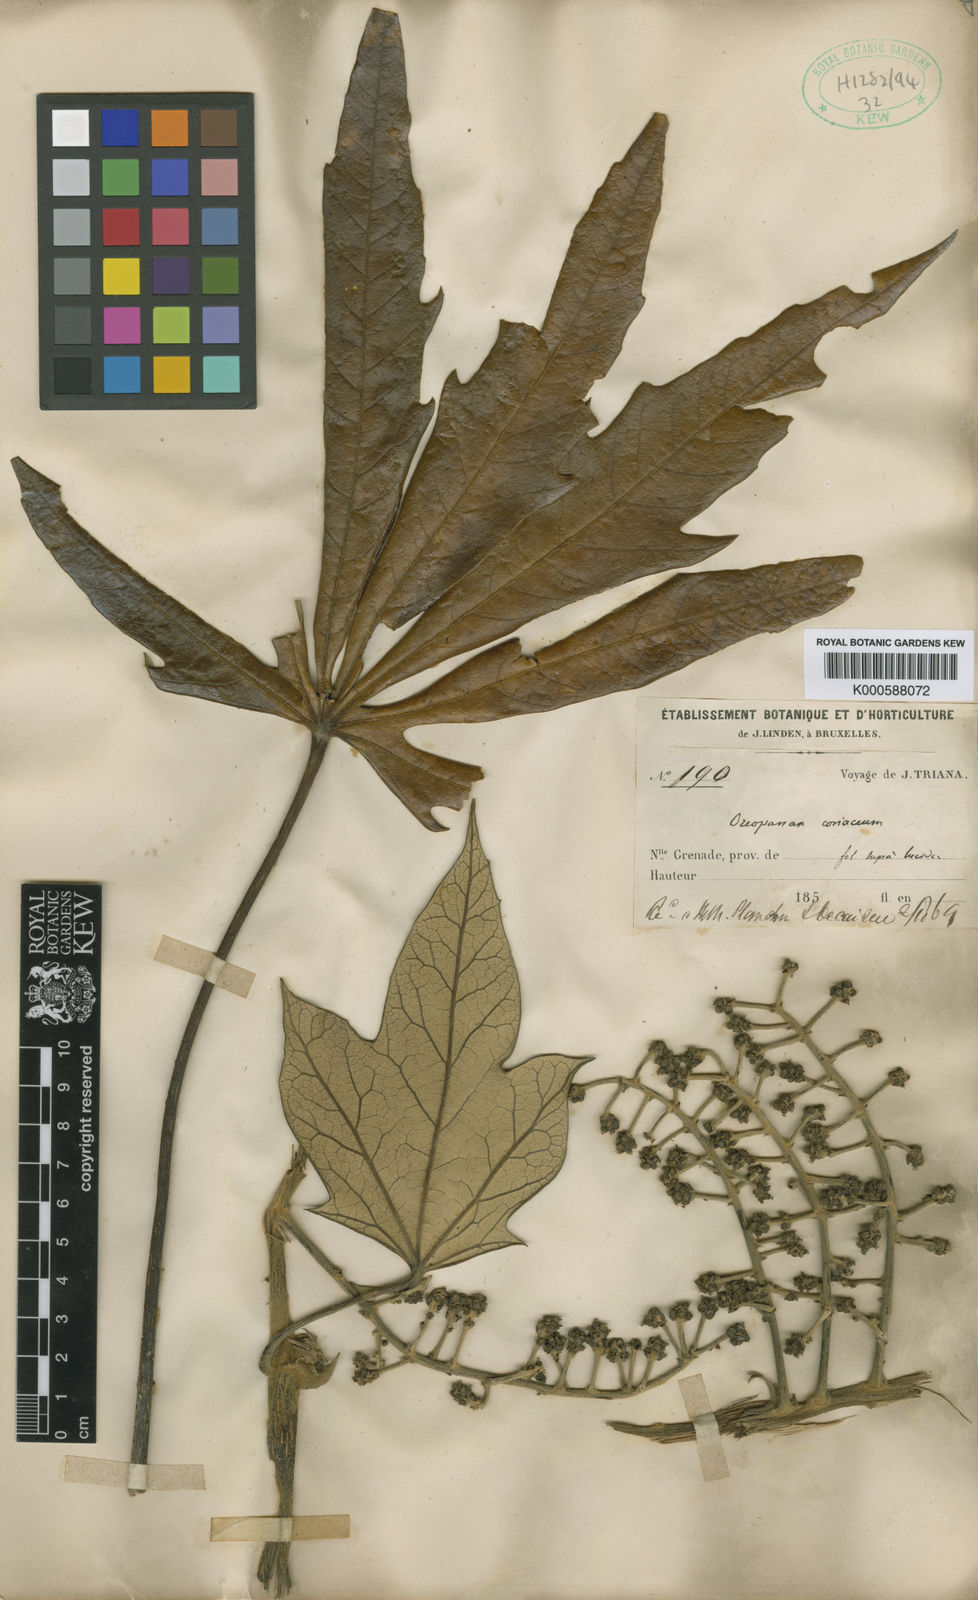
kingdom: Plantae
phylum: Tracheophyta
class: Magnoliopsida
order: Apiales
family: Araliaceae
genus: Oreopanax
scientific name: Oreopanax
